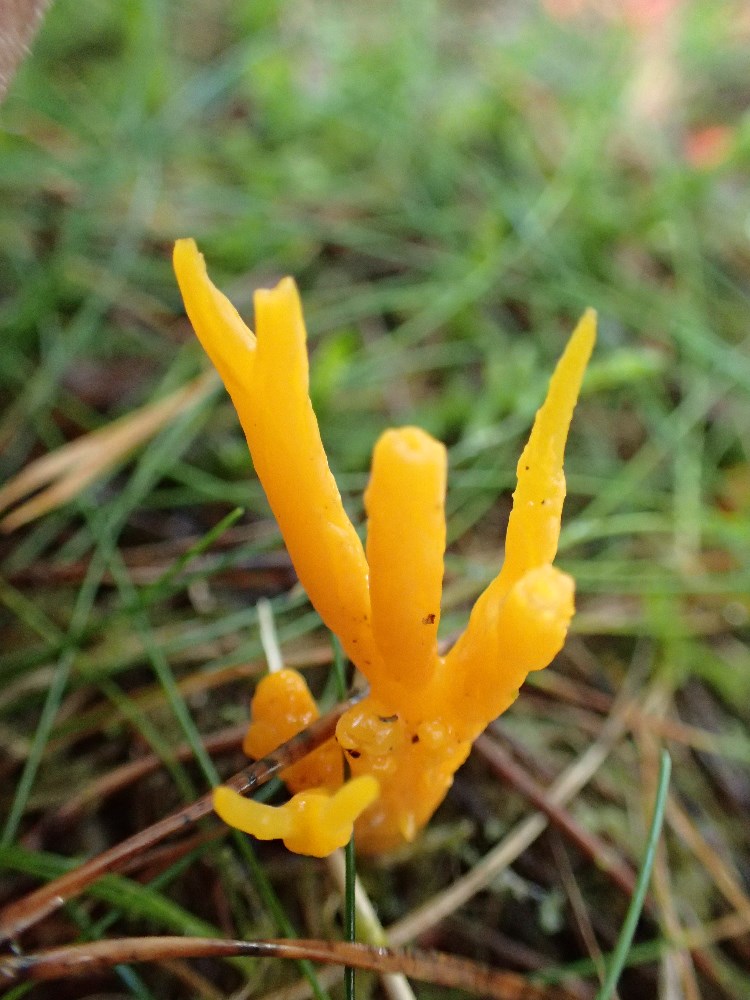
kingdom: Fungi
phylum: Basidiomycota
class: Dacrymycetes
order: Dacrymycetales
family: Dacrymycetaceae
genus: Calocera
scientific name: Calocera viscosa
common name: almindelig guldgaffel
